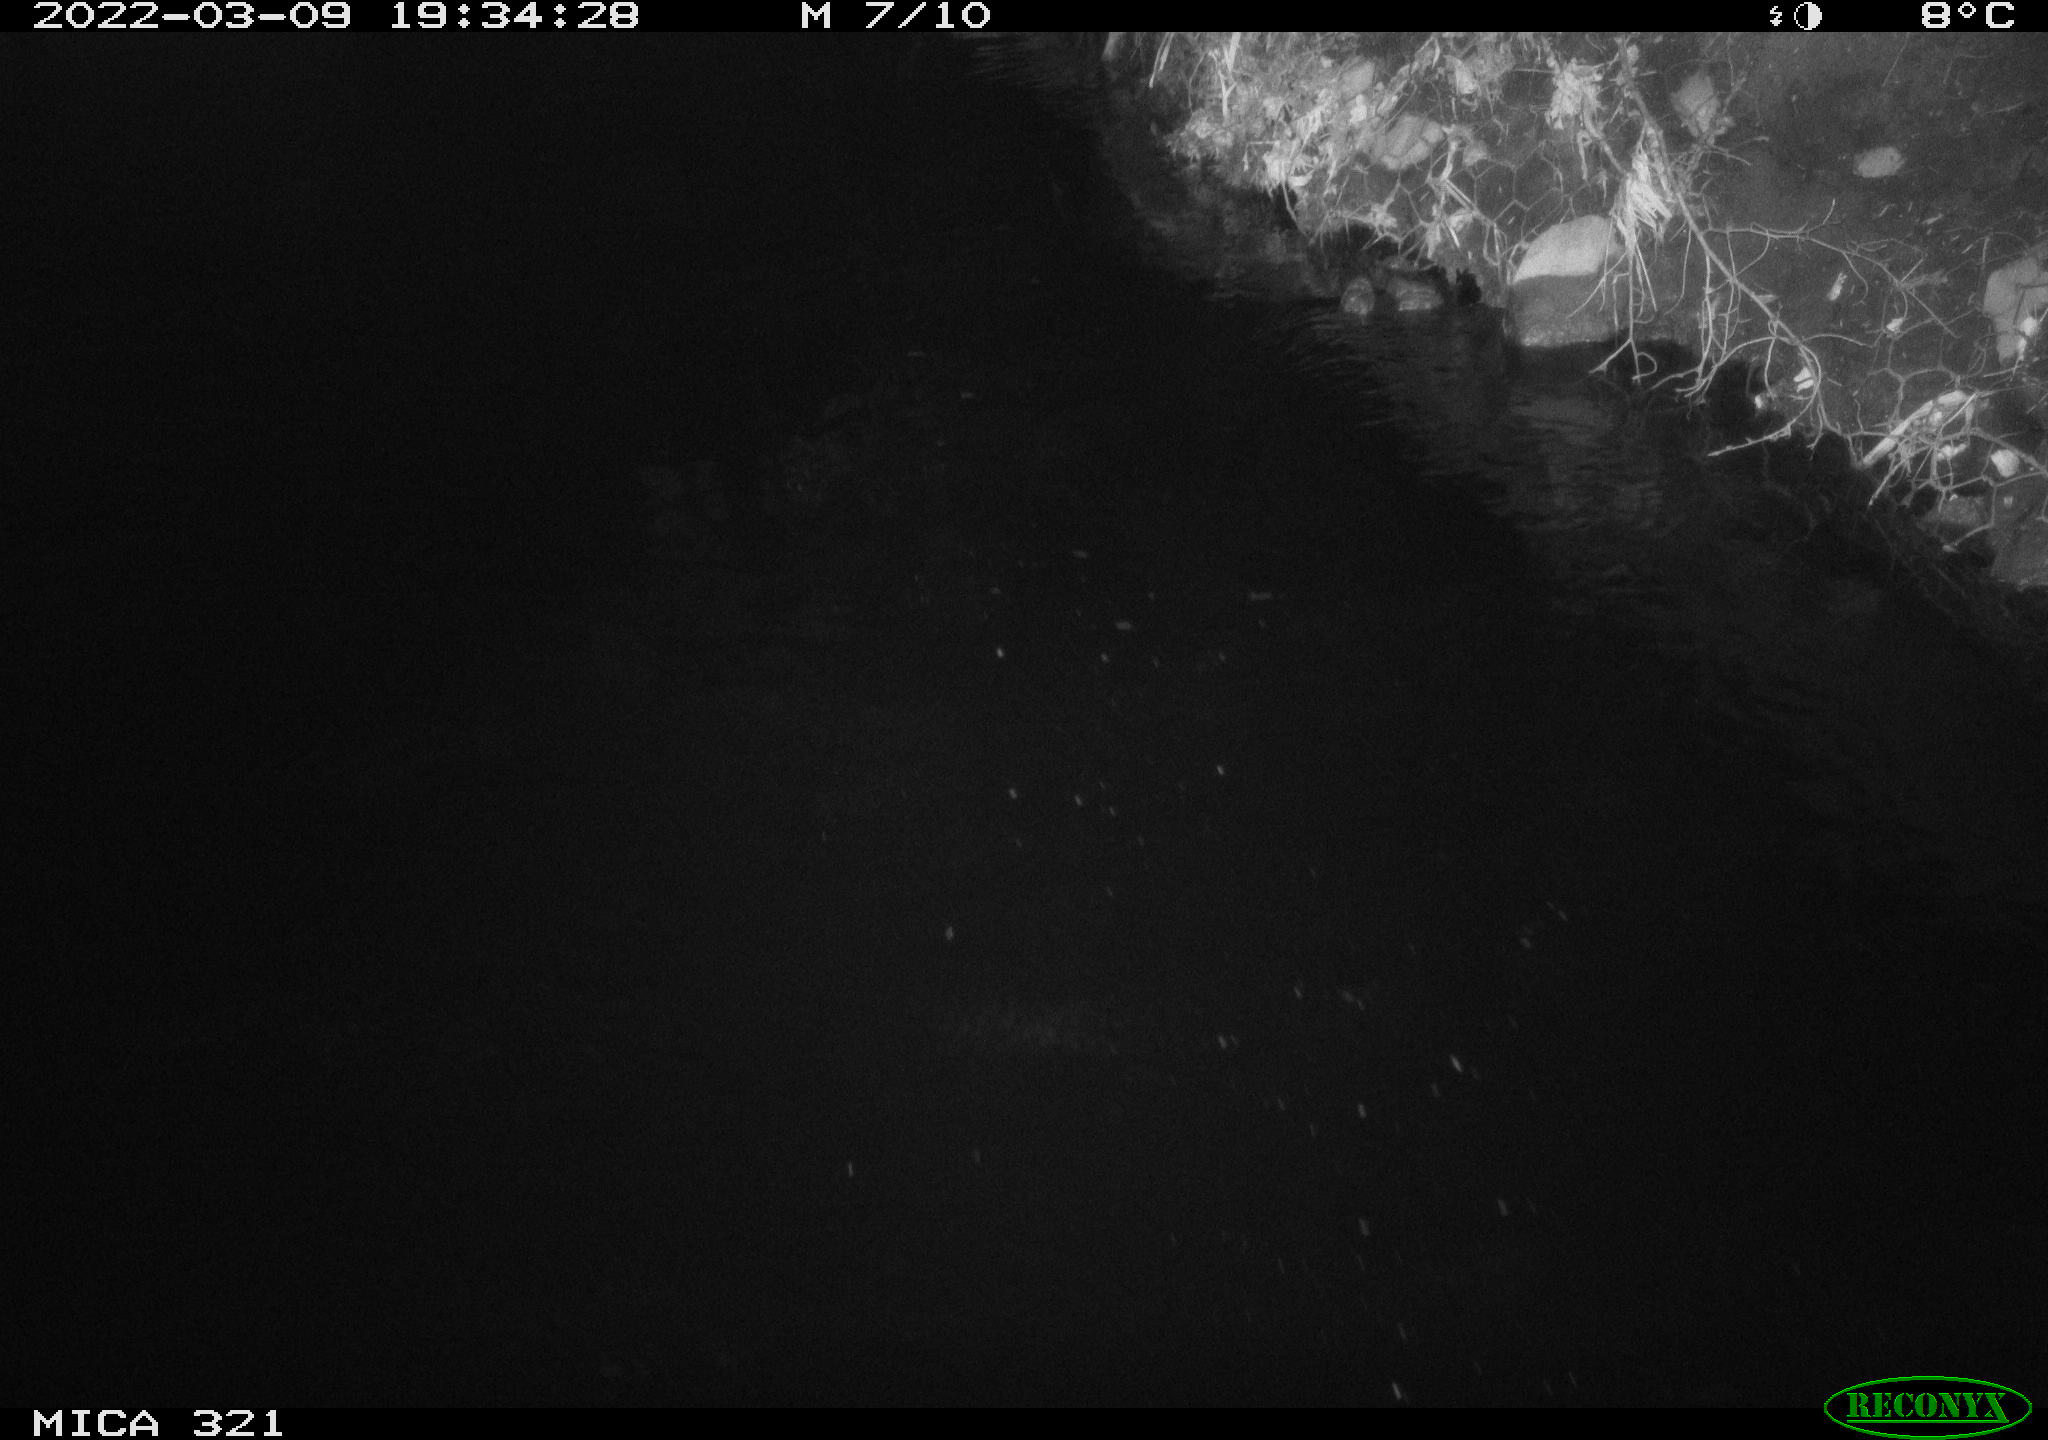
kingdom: Animalia
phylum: Chordata
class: Aves
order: Anseriformes
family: Anatidae
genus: Anas
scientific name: Anas platyrhynchos
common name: Mallard
